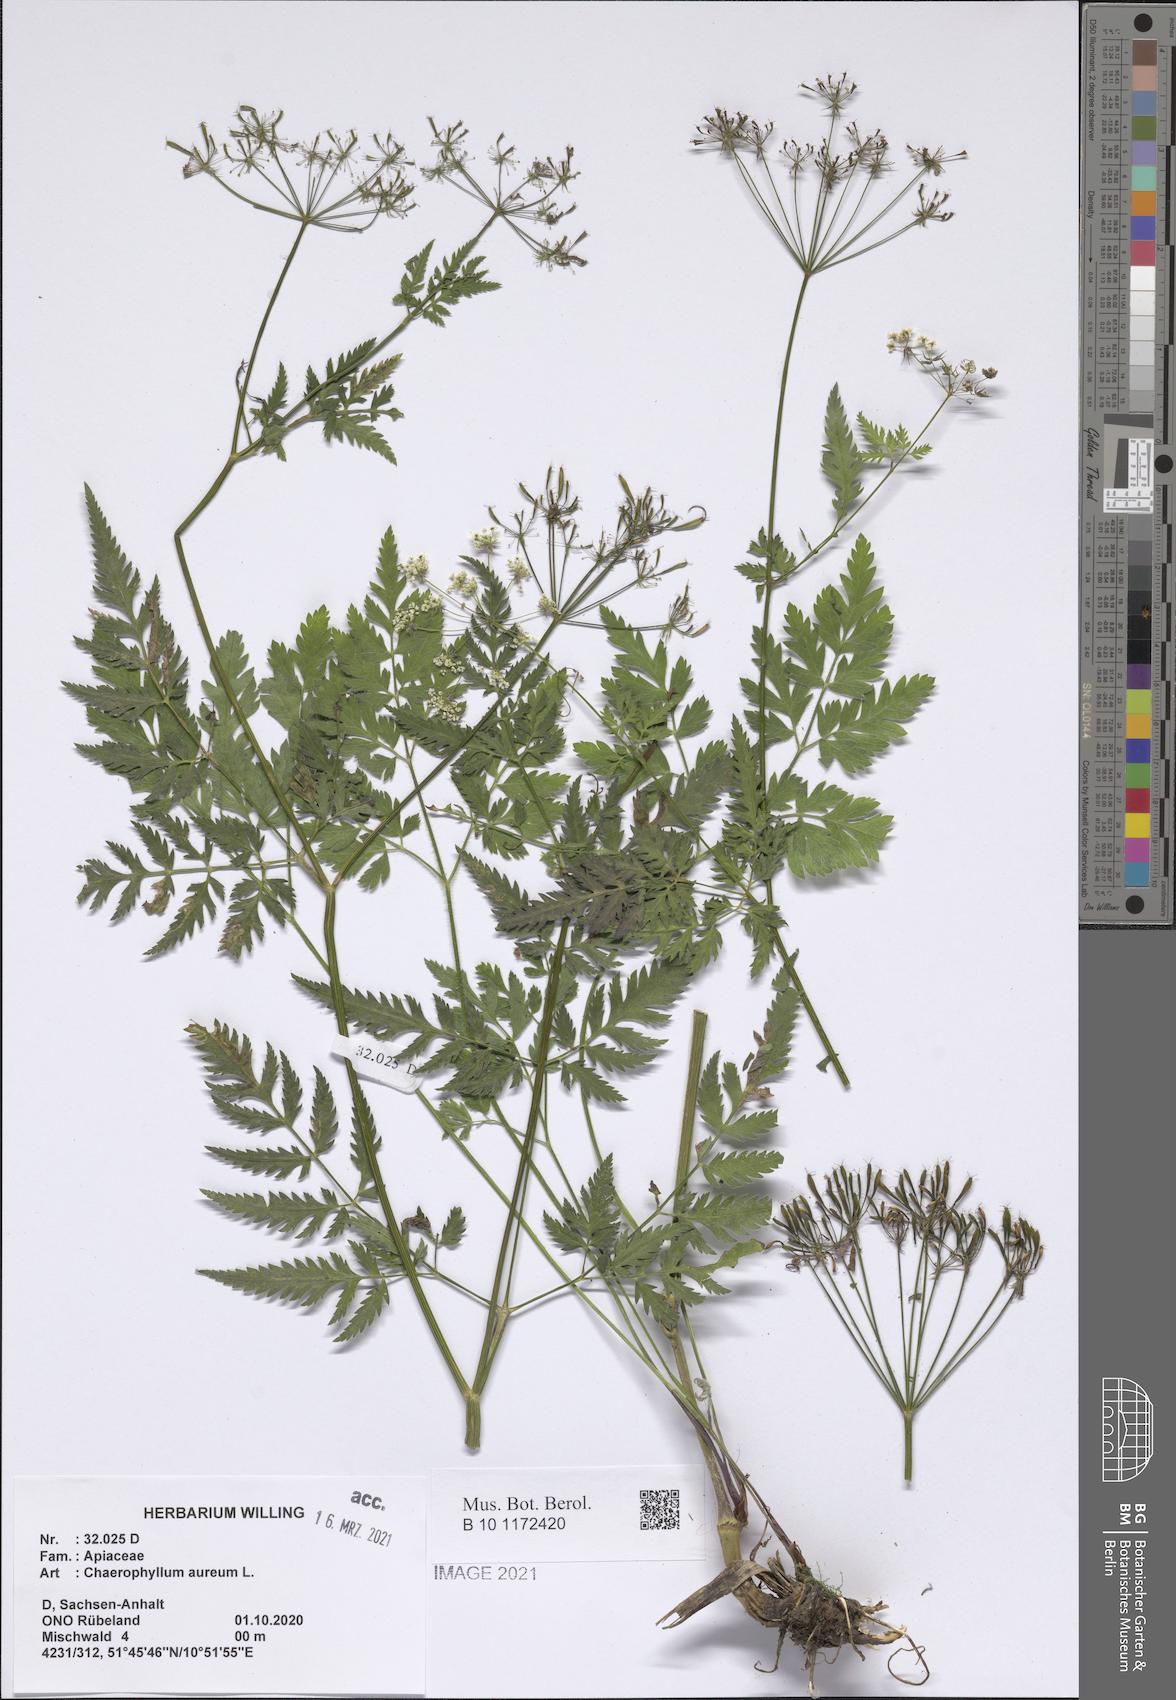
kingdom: Plantae
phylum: Tracheophyta
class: Magnoliopsida
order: Apiales
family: Apiaceae
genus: Chaerophyllum
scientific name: Chaerophyllum aureum
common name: Golden chervil
